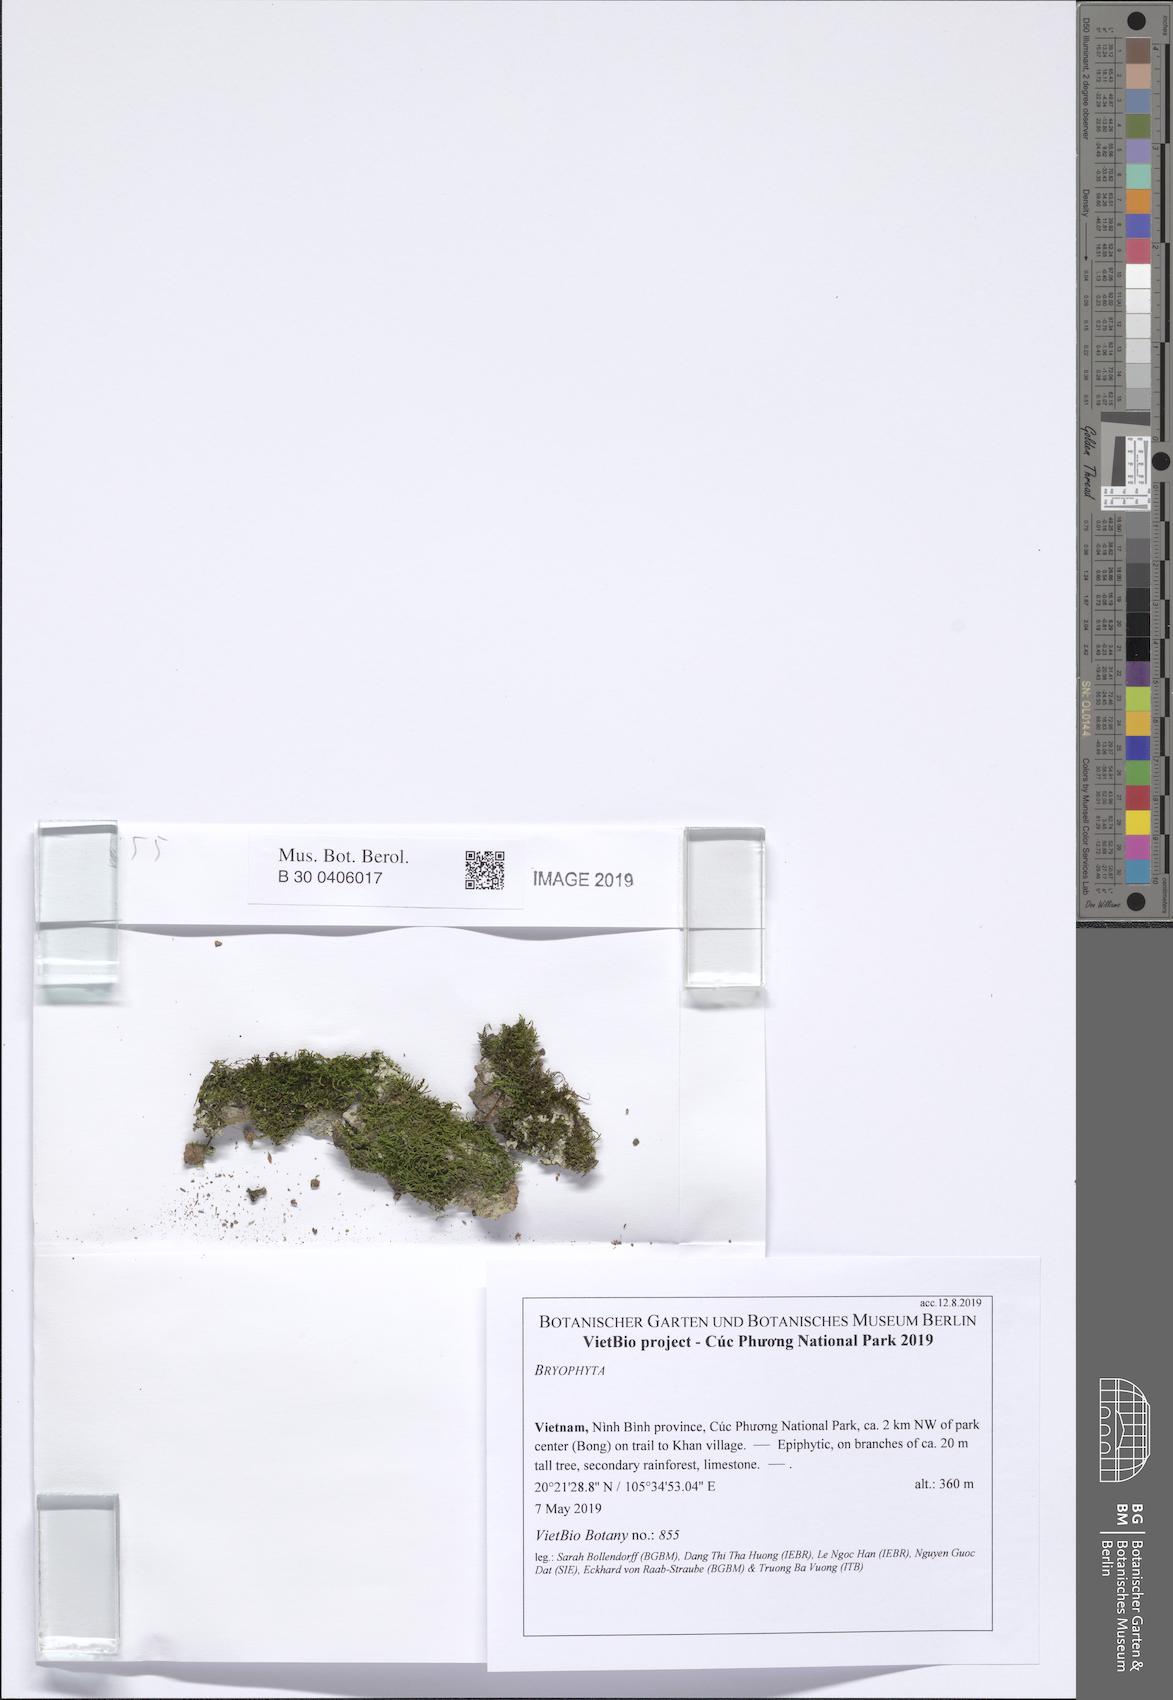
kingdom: Plantae
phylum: Bryophyta
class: Bryopsida
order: Hypnales
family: Leskeaceae
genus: Haplocladium
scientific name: Haplocladium angustifolium
